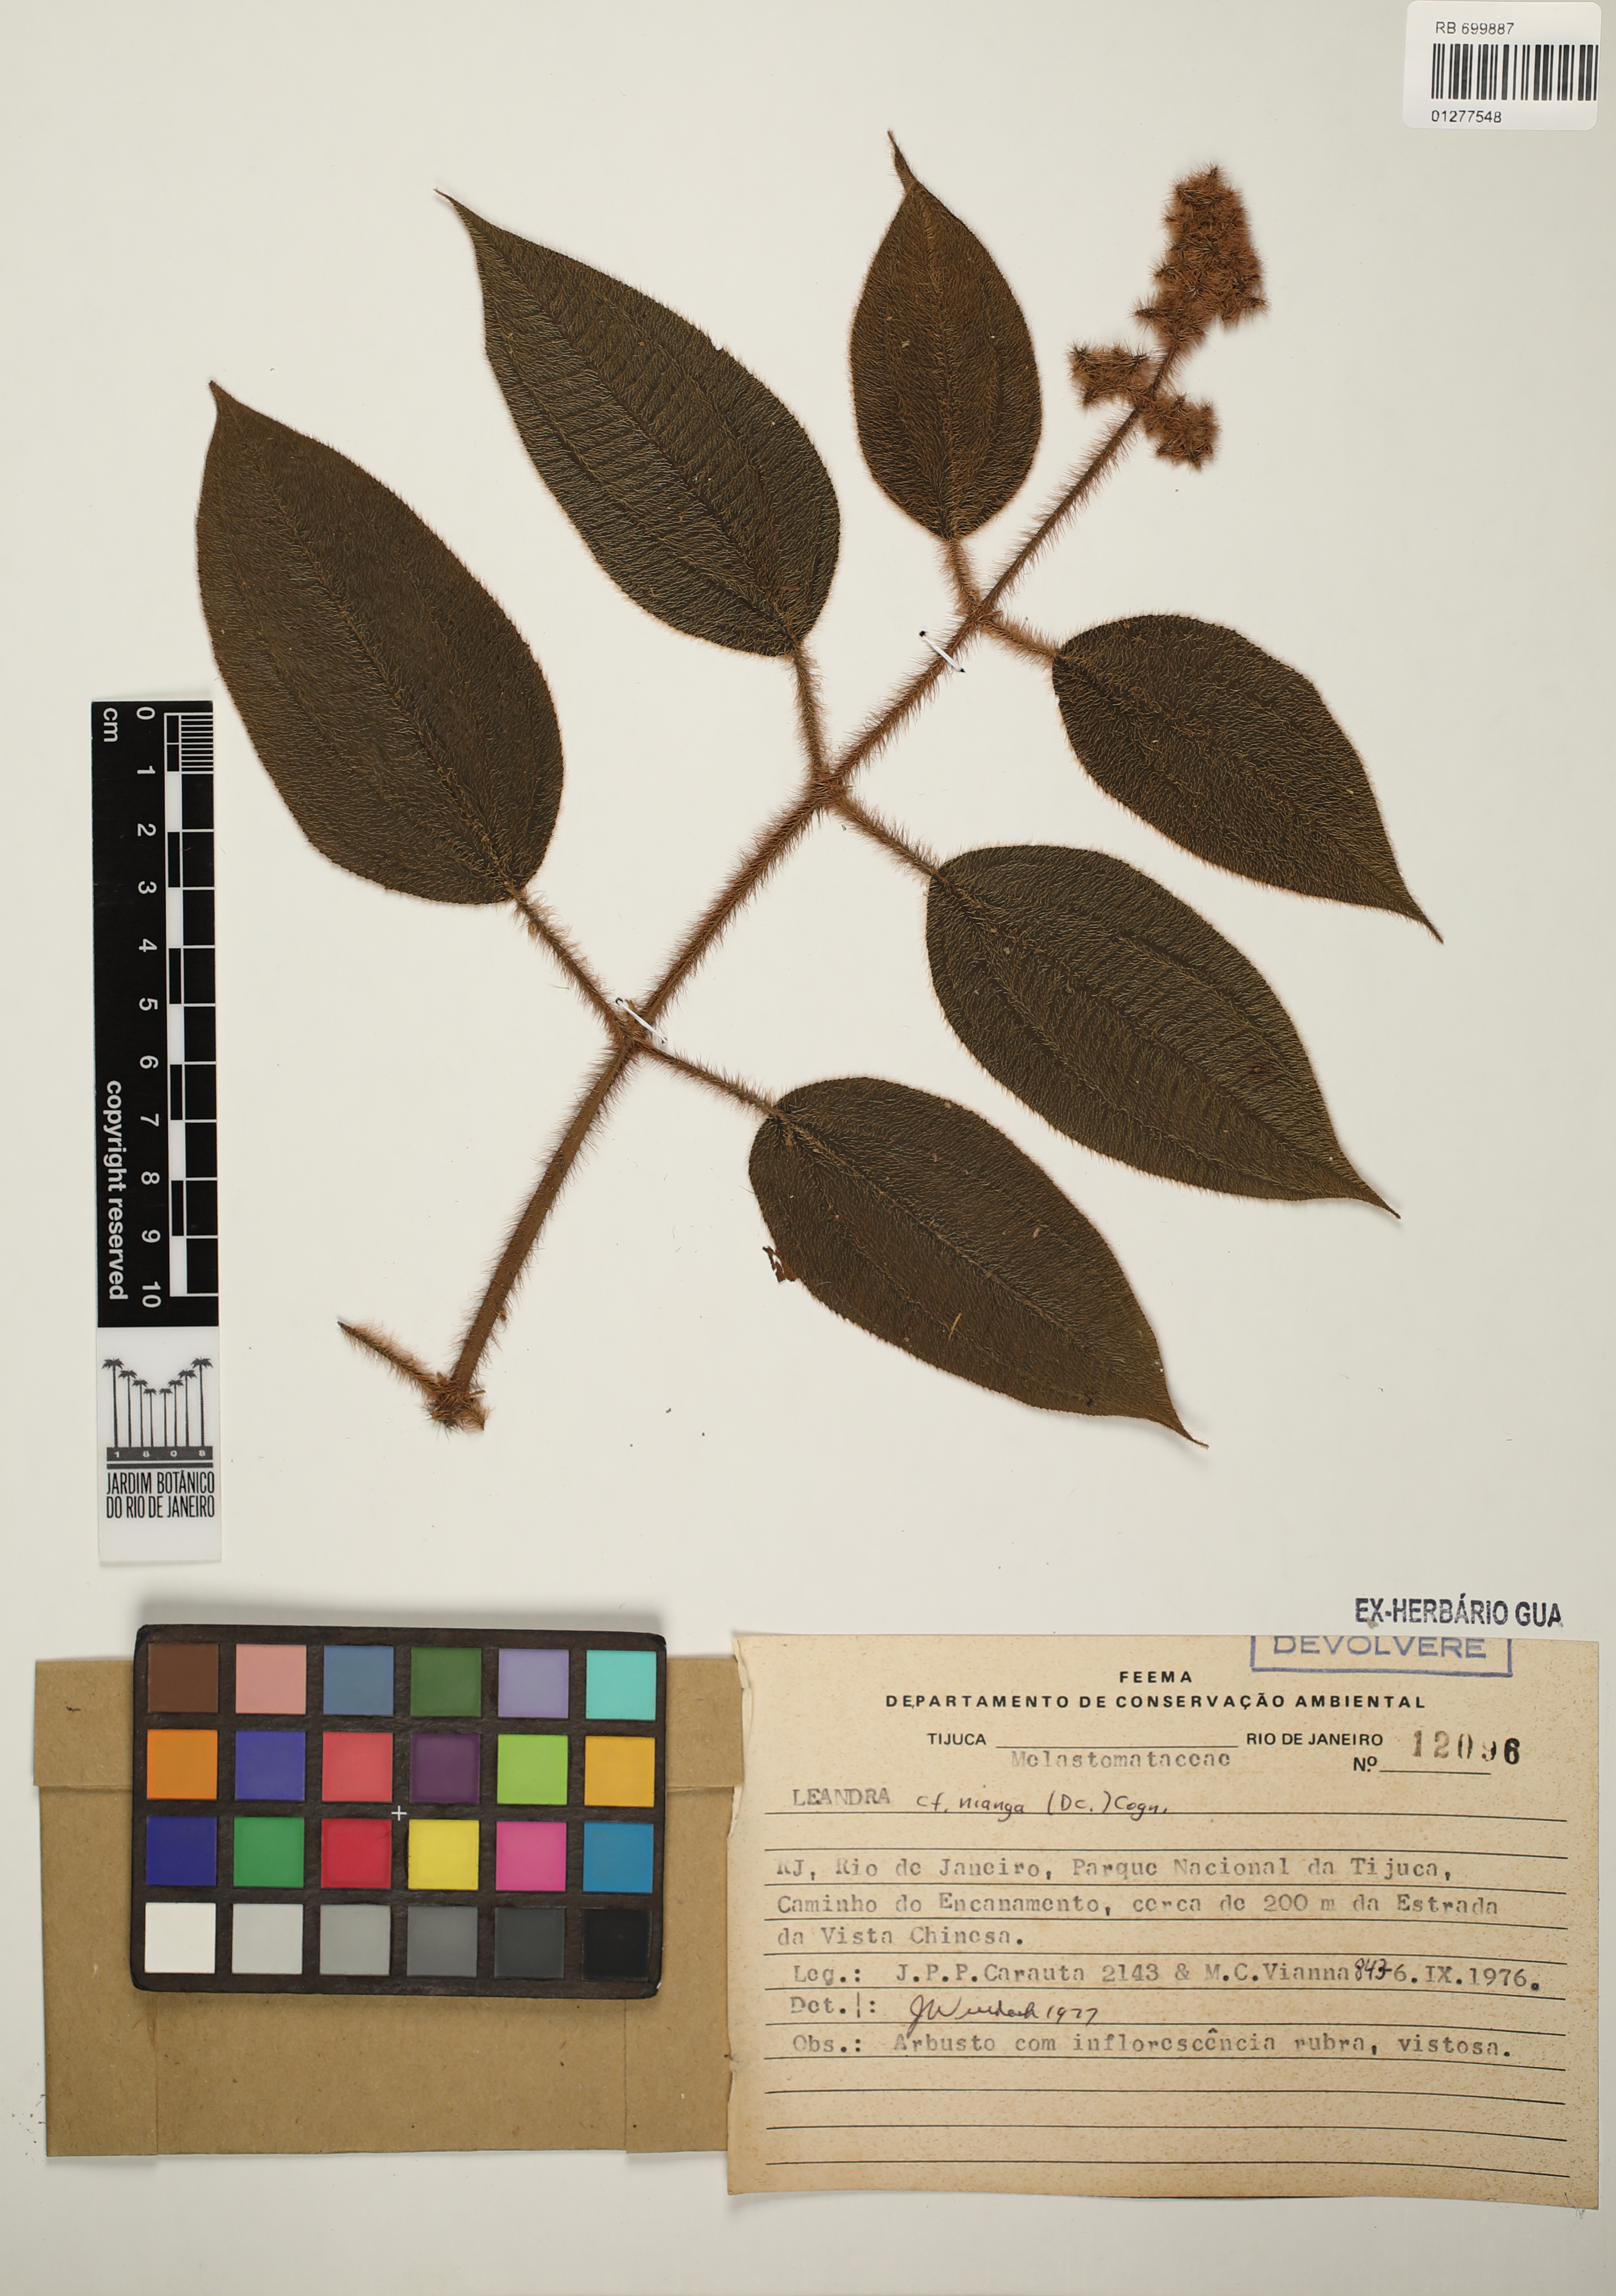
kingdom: Plantae
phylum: Tracheophyta
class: Magnoliopsida
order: Myrtales
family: Melastomataceae
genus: Miconia
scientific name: Miconia nianga
